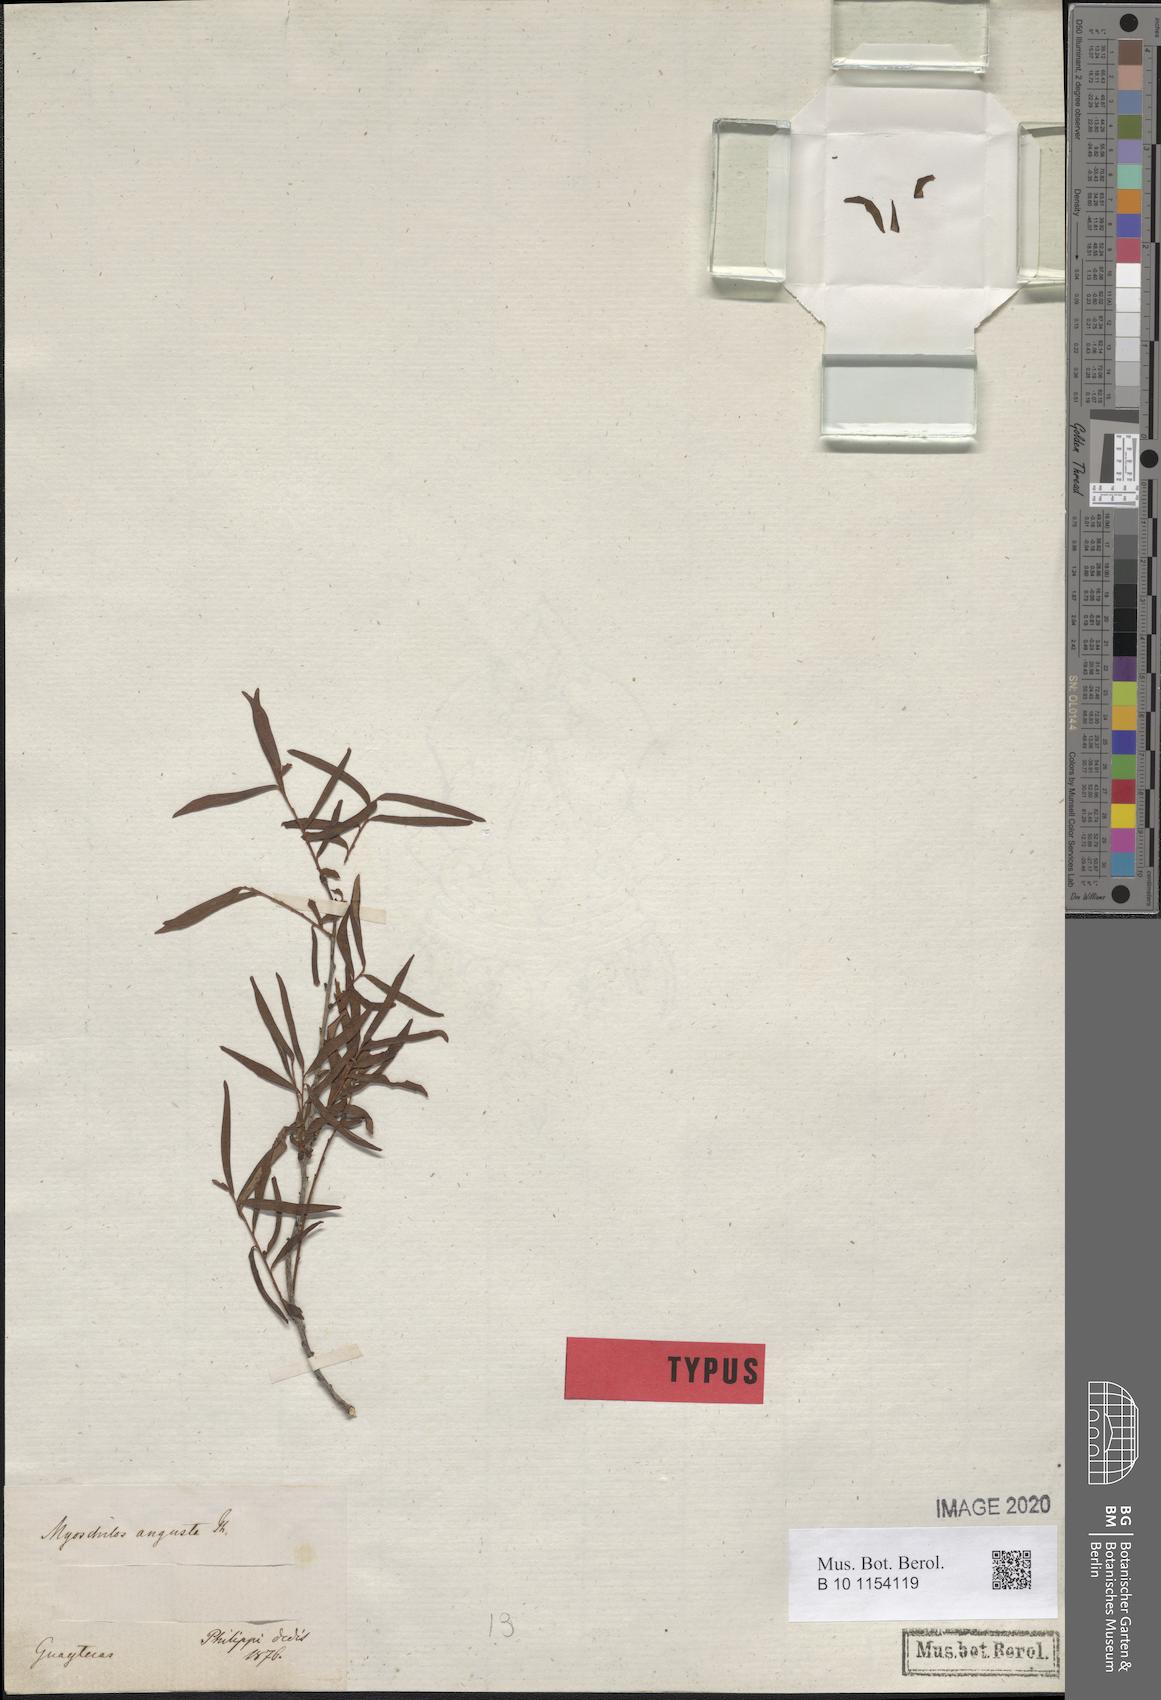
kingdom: Plantae
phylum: Tracheophyta
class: Magnoliopsida
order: Santalales
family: Santalaceae
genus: Myoschilos
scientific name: Myoschilos oblongum
